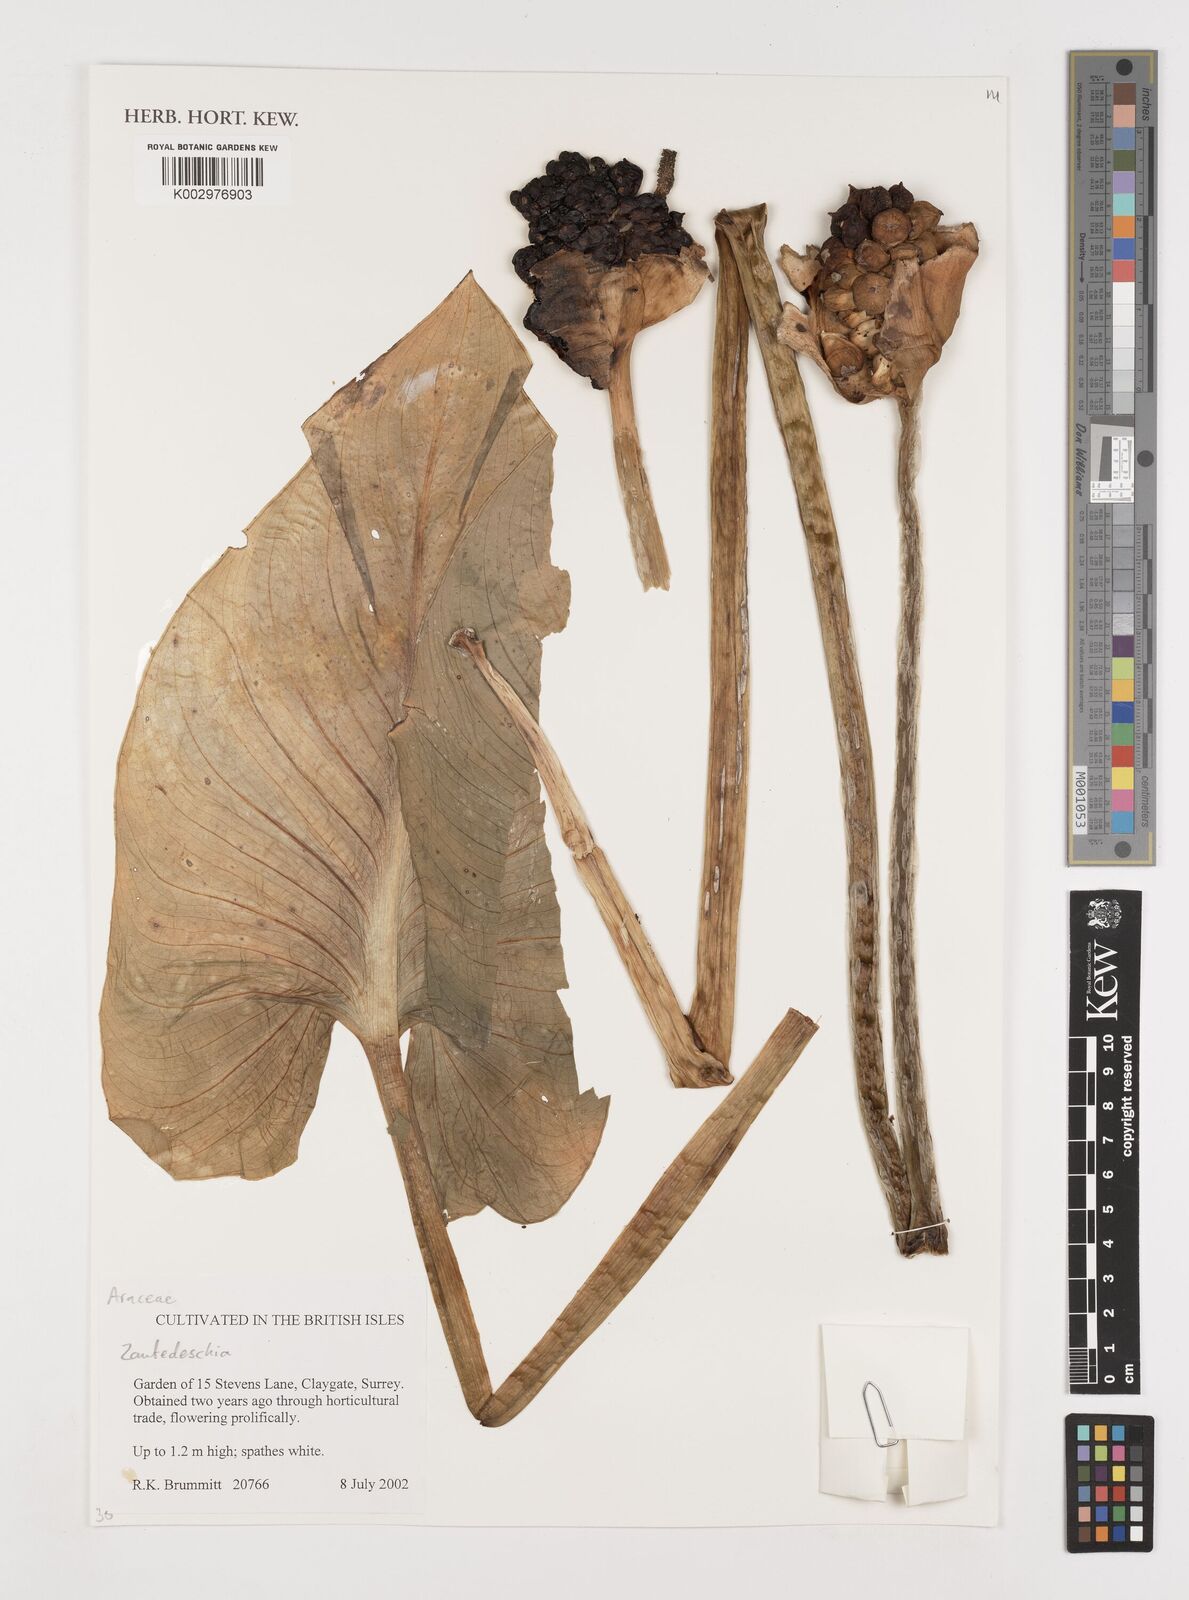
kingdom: Plantae
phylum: Tracheophyta
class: Liliopsida
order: Alismatales
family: Araceae
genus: Zantedeschia
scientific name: Zantedeschia aethiopica
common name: Altar-lily
